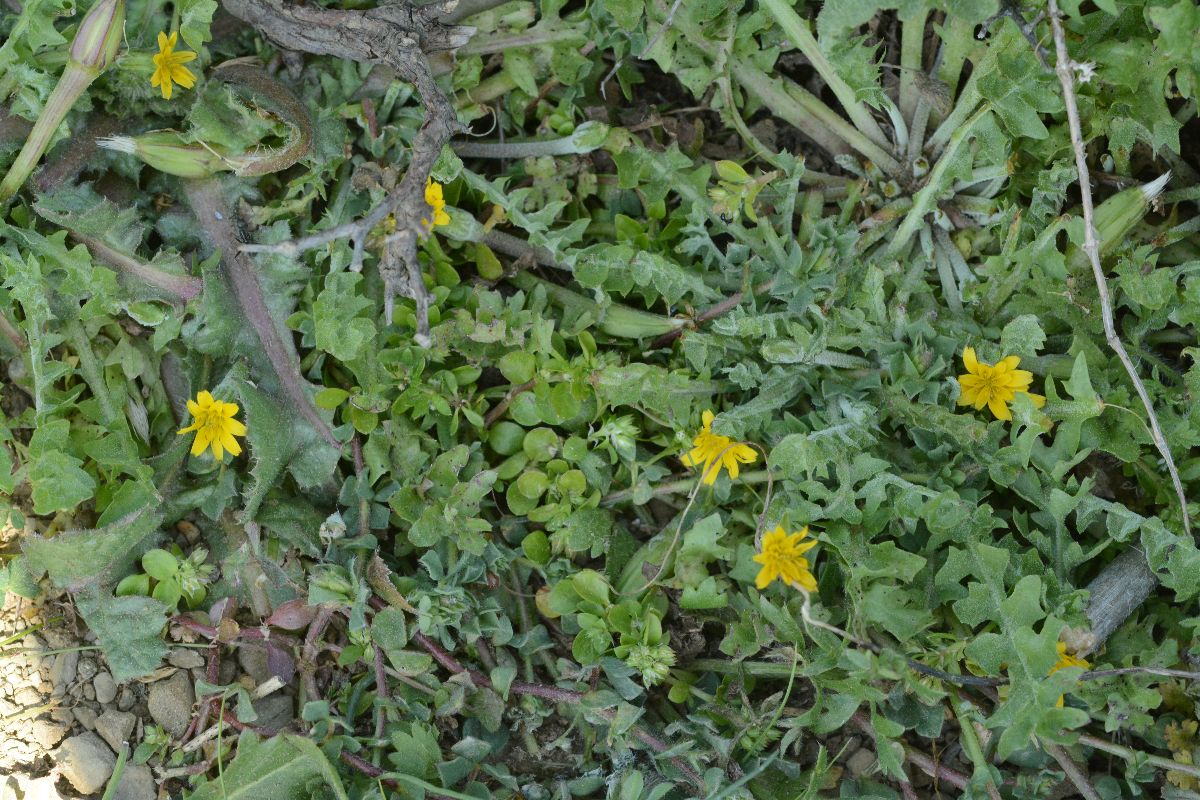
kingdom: Plantae
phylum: Tracheophyta
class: Magnoliopsida
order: Asterales
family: Asteraceae
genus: Hyoseris
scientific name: Hyoseris scabra
